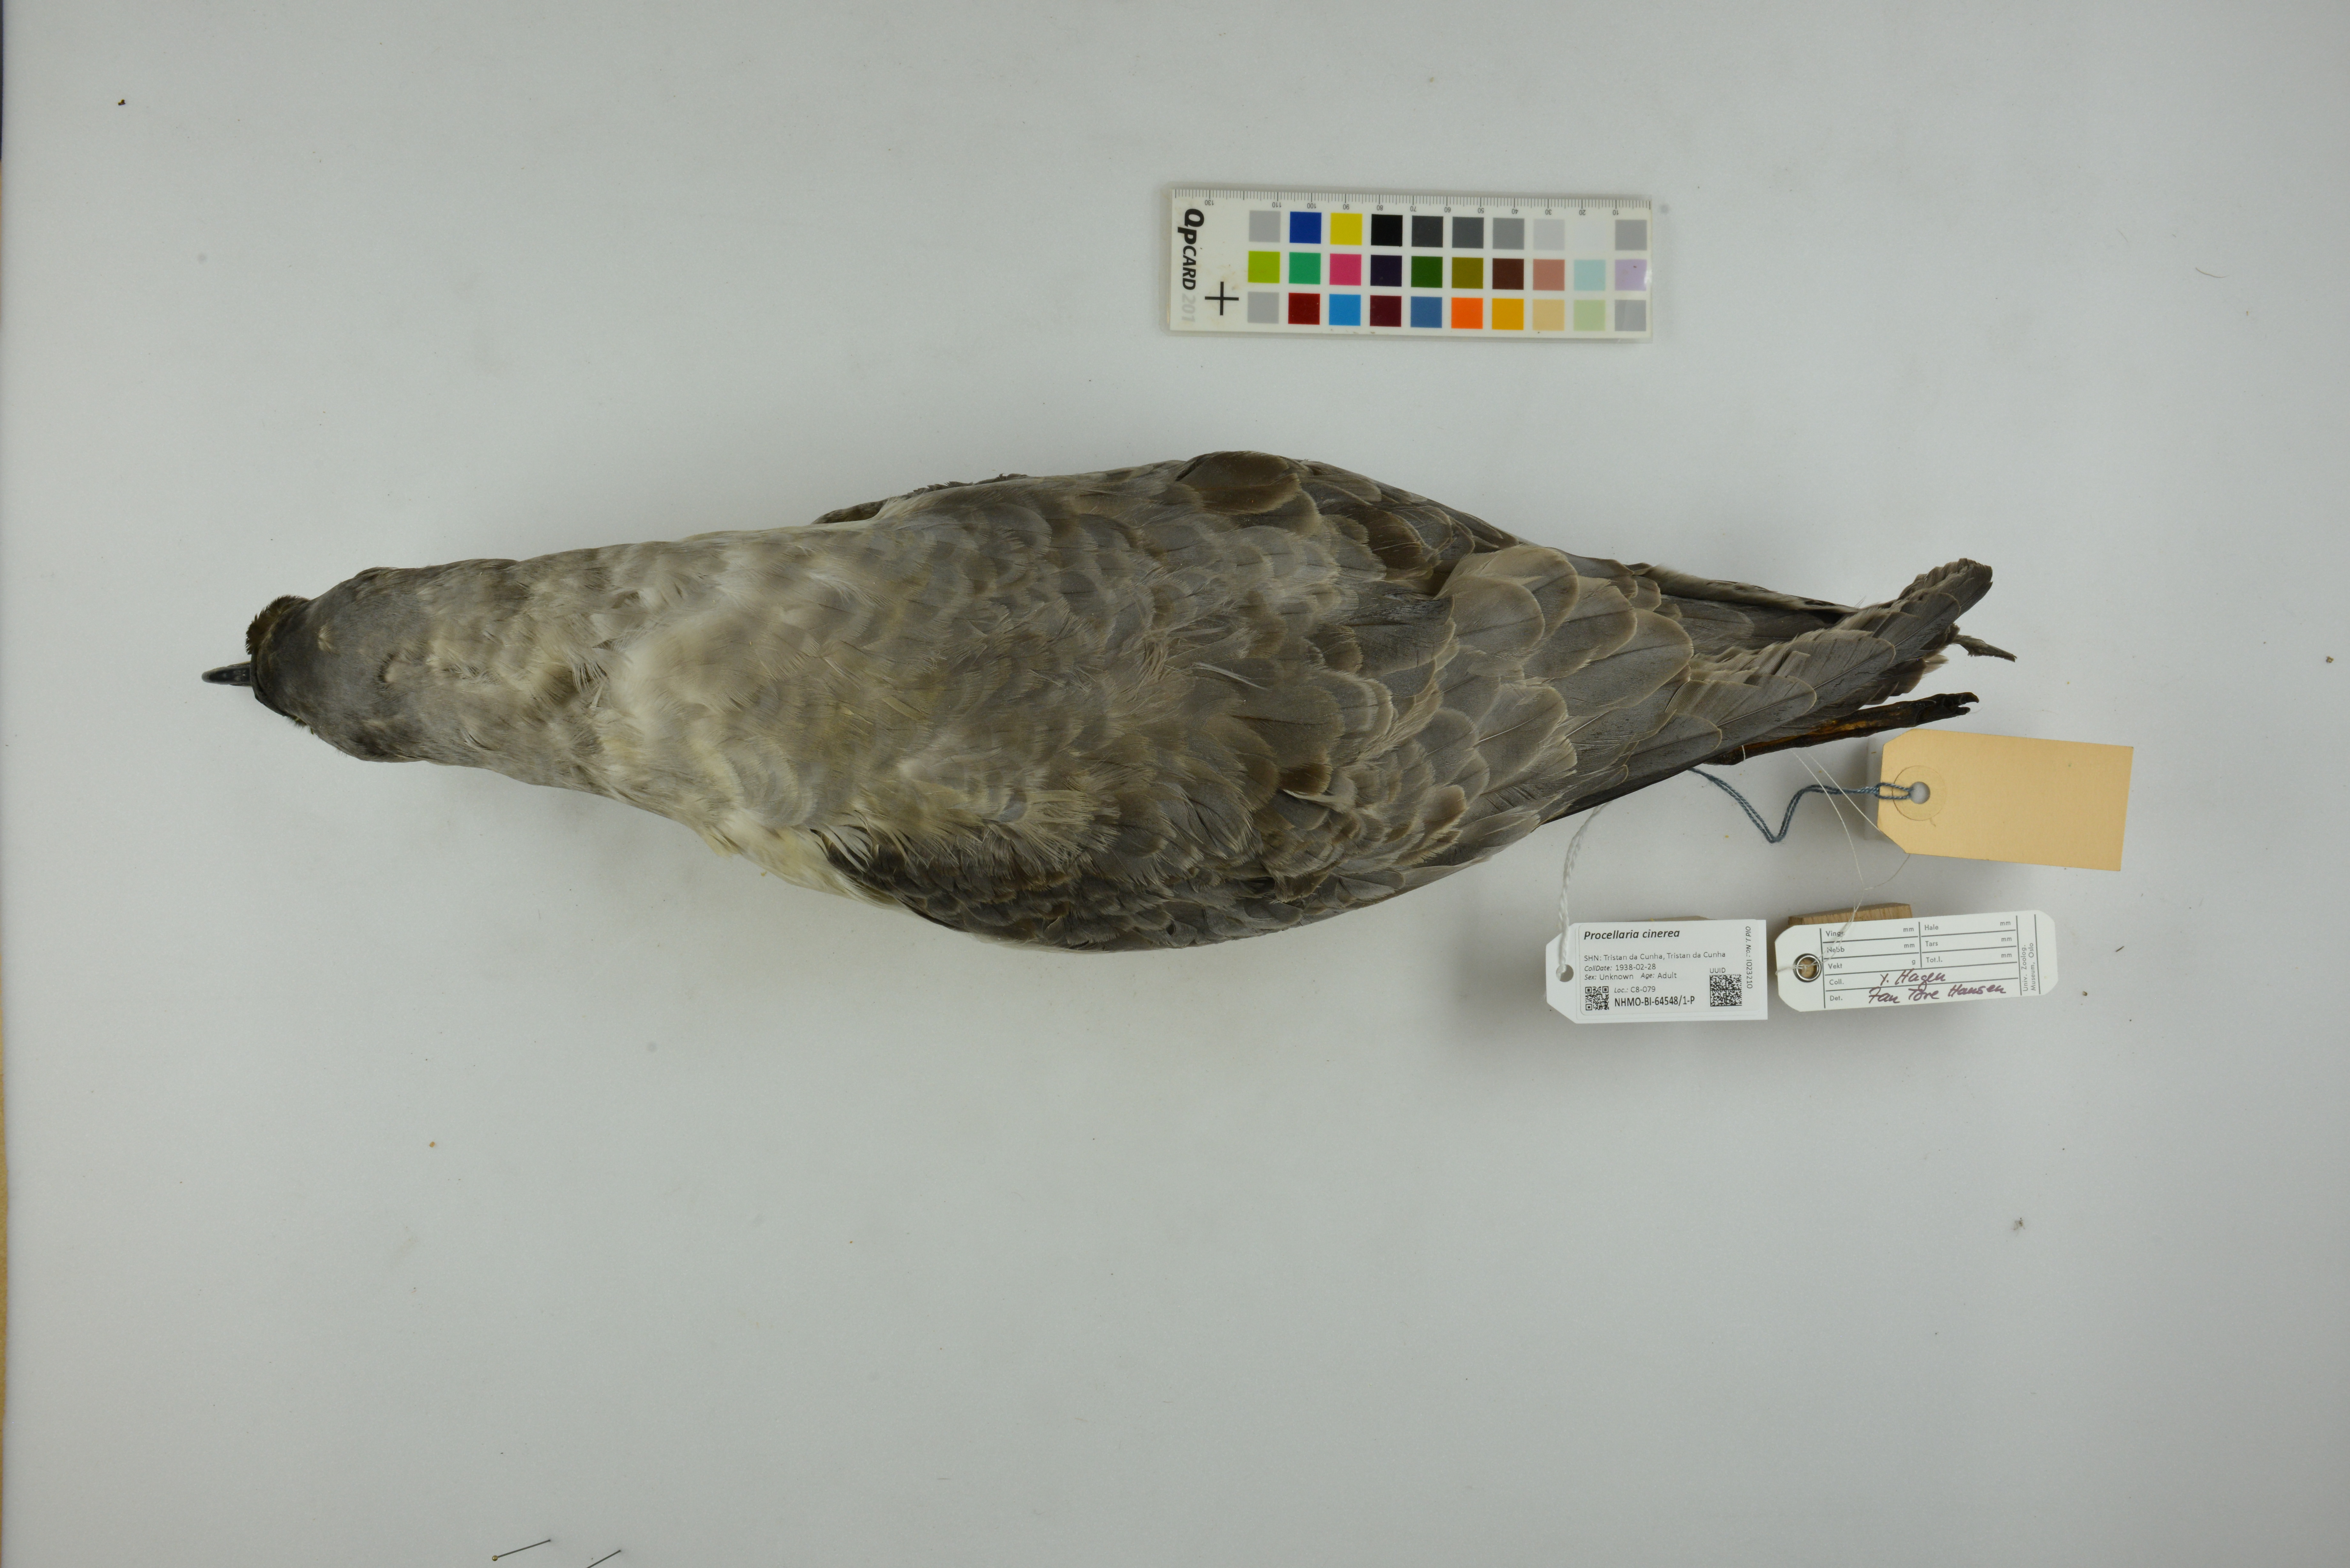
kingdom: Animalia
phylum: Chordata
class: Aves
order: Procellariiformes
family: Procellariidae
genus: Procellaria
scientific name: Procellaria cinerea
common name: Grey petrel
